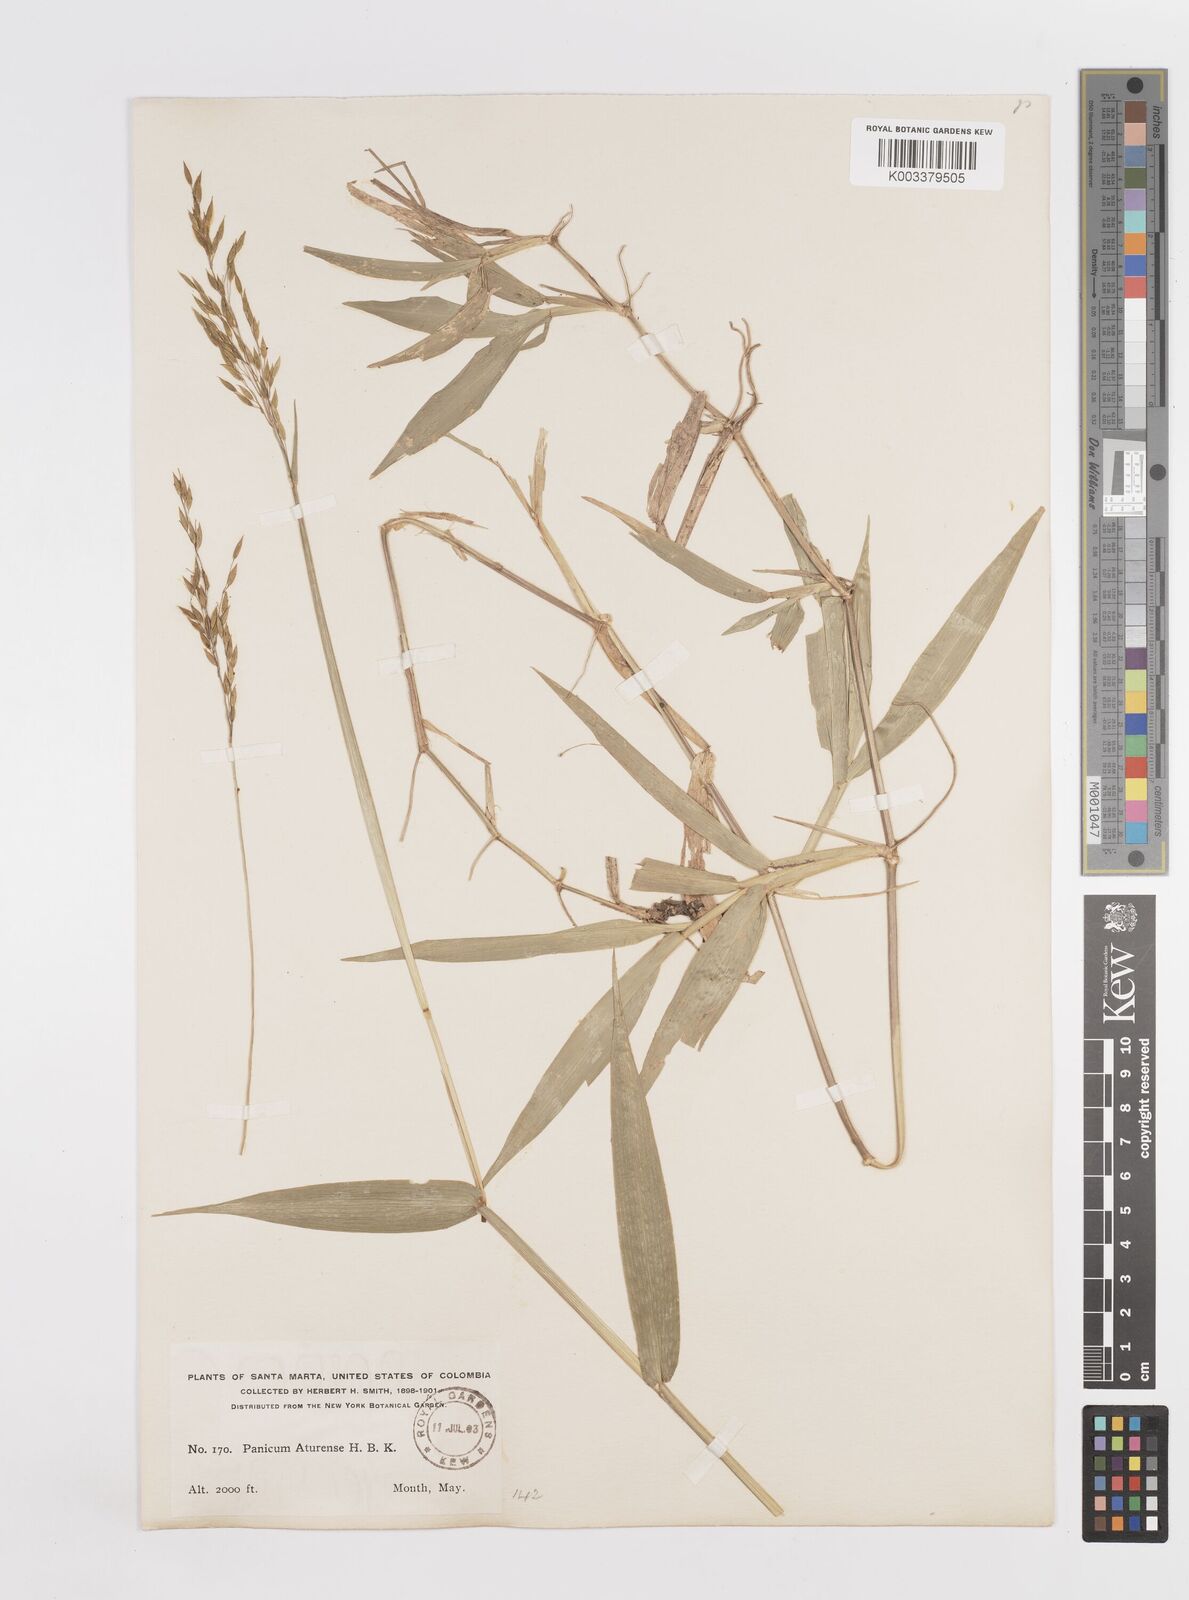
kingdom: Plantae
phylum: Tracheophyta
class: Liliopsida
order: Poales
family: Poaceae
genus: Homolepis
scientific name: Homolepis aturensis
